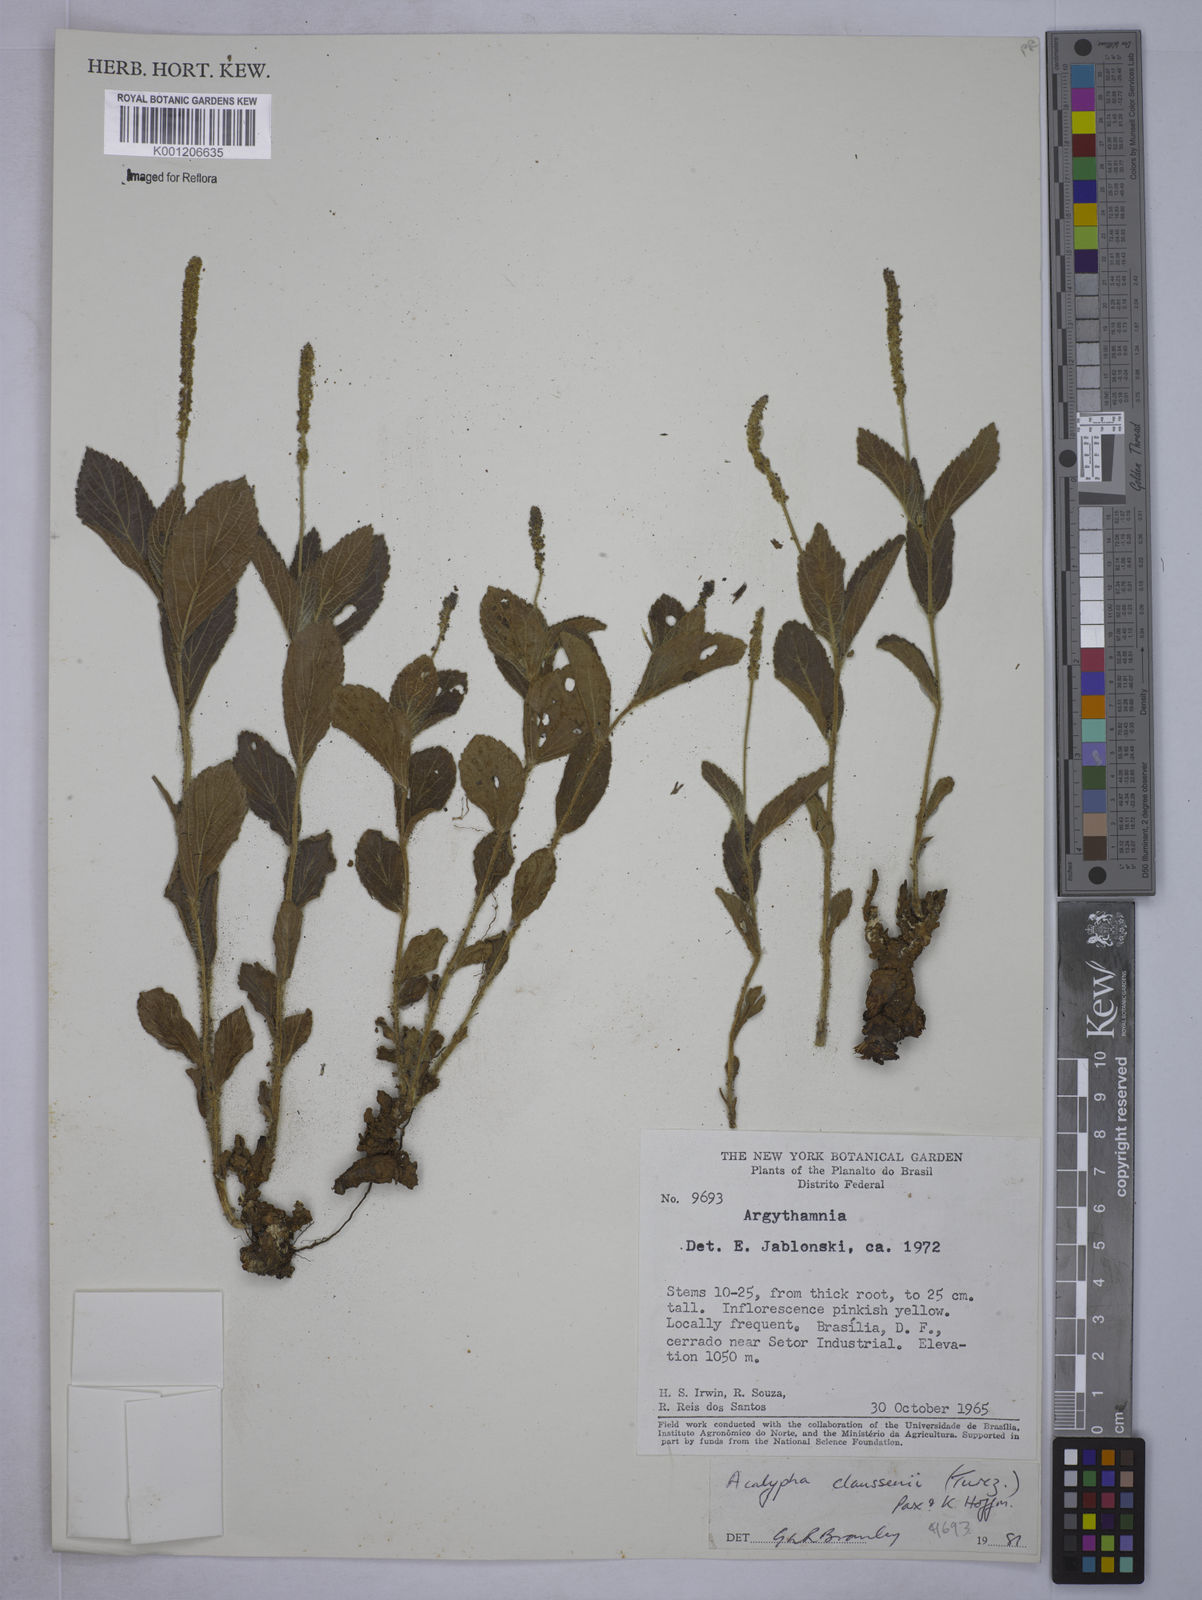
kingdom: Plantae
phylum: Tracheophyta
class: Magnoliopsida
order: Malpighiales
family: Euphorbiaceae
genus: Acalypha
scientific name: Acalypha
